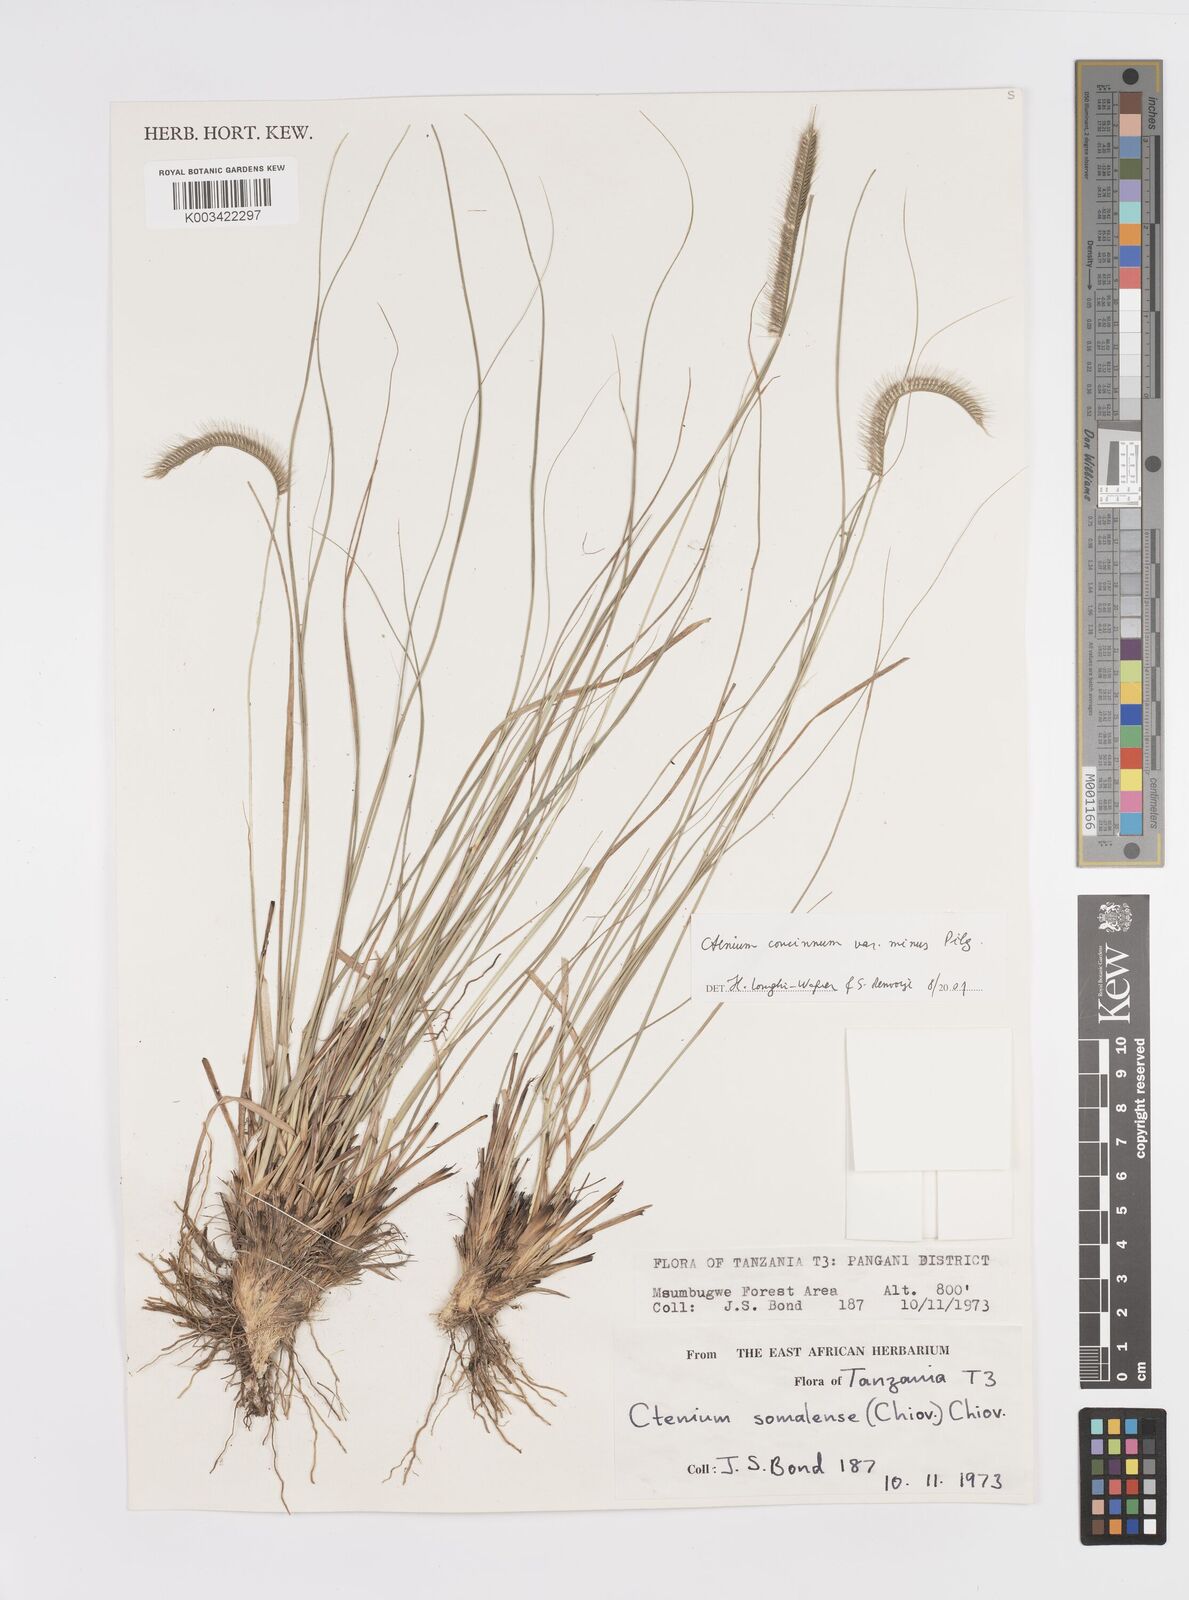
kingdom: Plantae
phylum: Tracheophyta
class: Liliopsida
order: Poales
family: Poaceae
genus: Ctenium
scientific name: Ctenium concinnum
